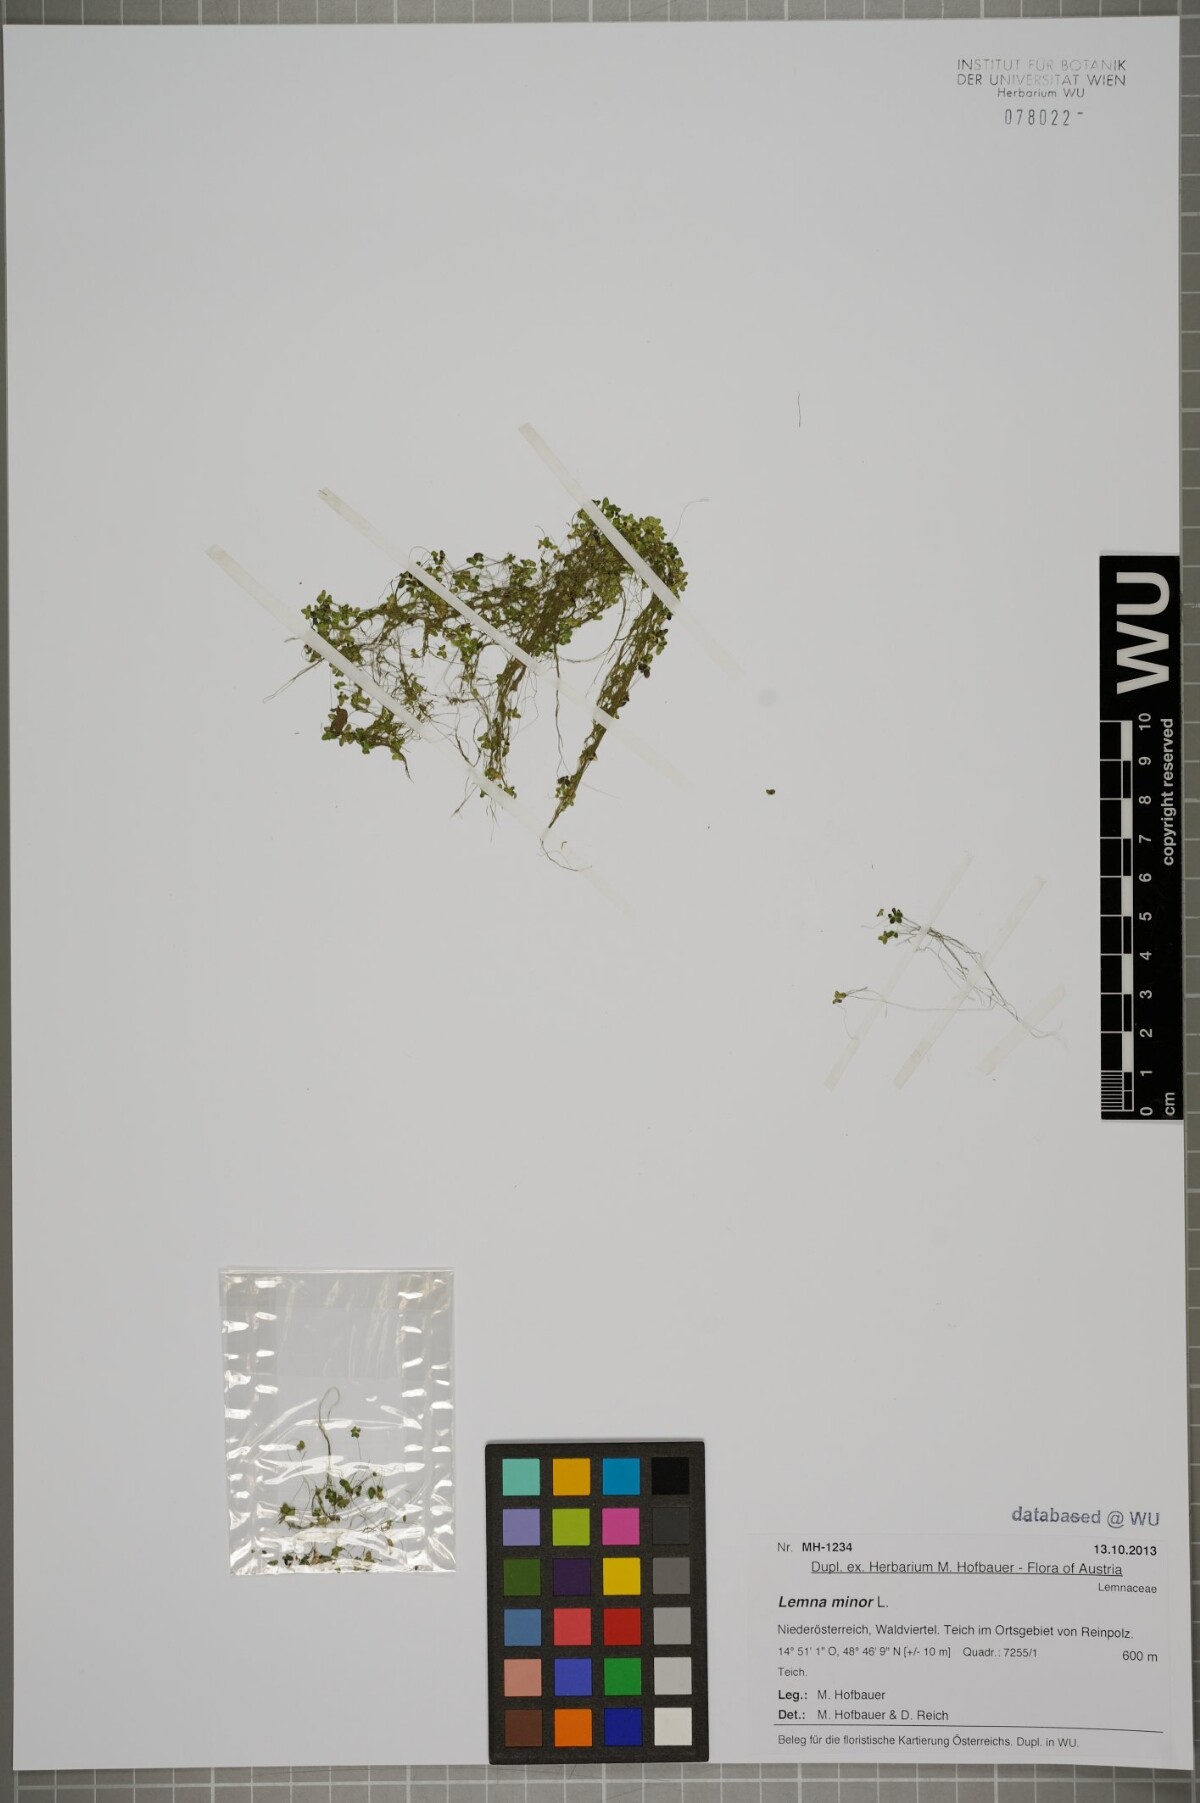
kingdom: Plantae
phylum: Tracheophyta
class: Liliopsida
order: Alismatales
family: Araceae
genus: Lemna
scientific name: Lemna minor
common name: Common duckweed
